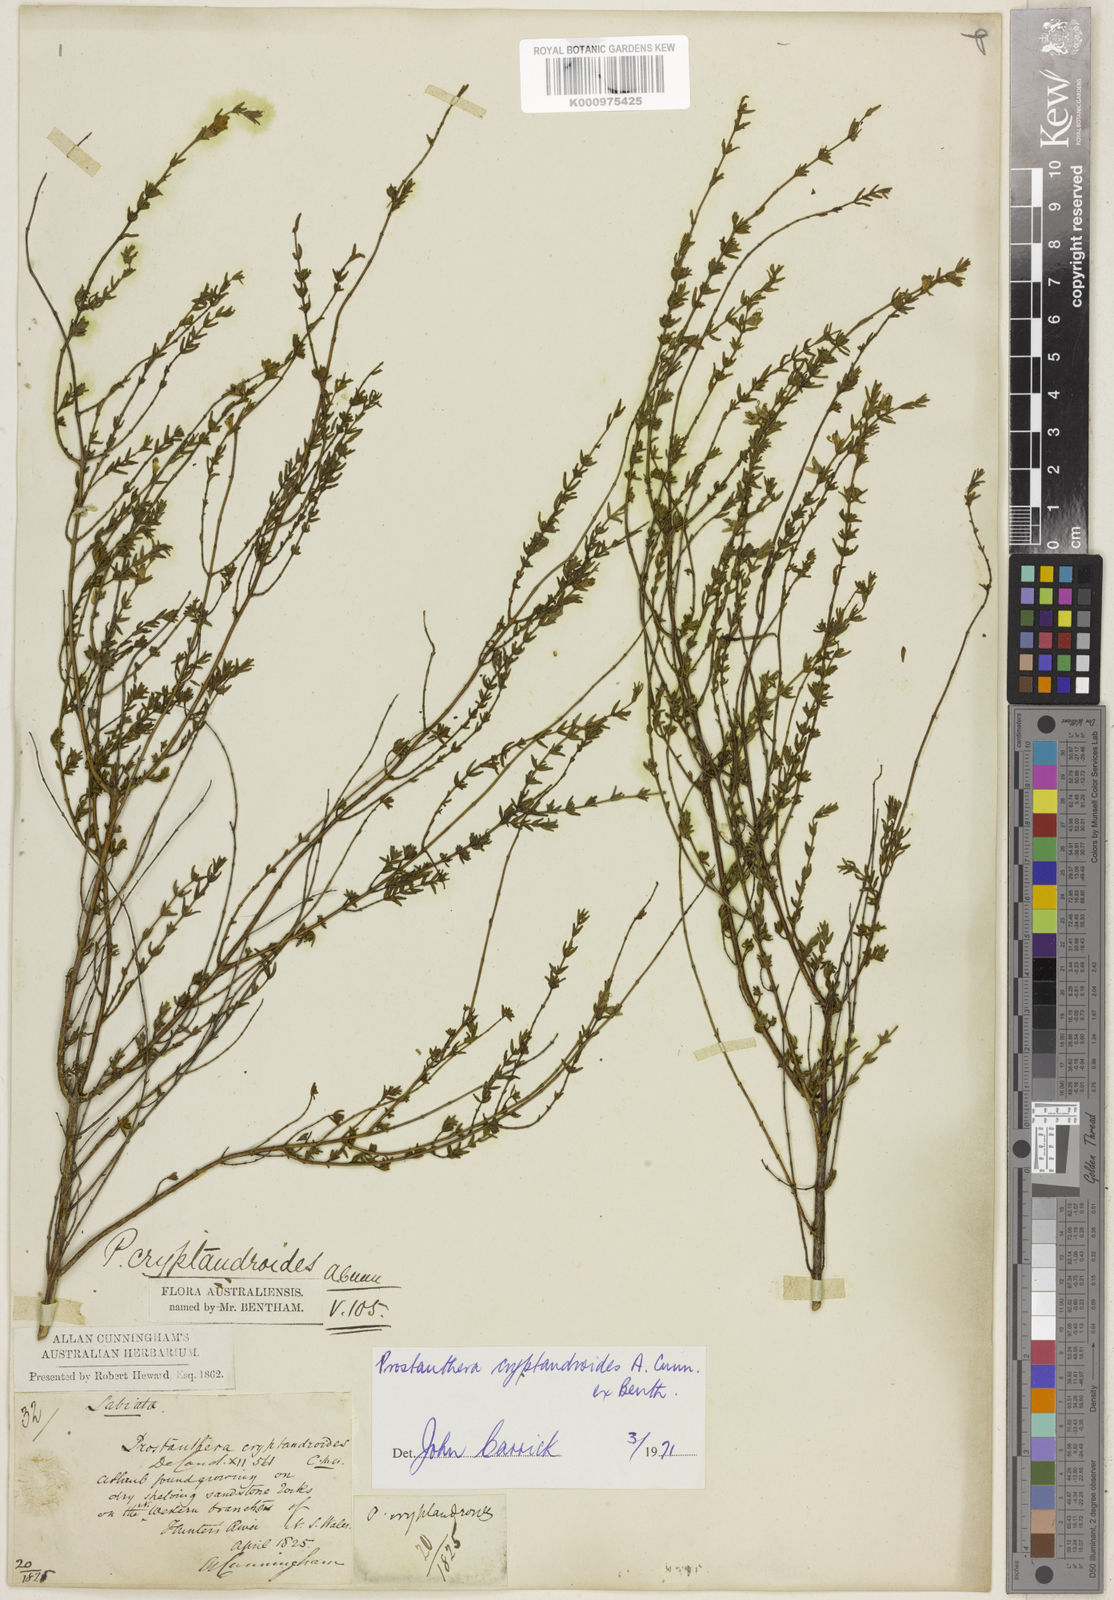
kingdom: Plantae
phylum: Tracheophyta
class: Magnoliopsida
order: Lamiales
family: Lamiaceae
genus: Prostanthera
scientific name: Prostanthera
